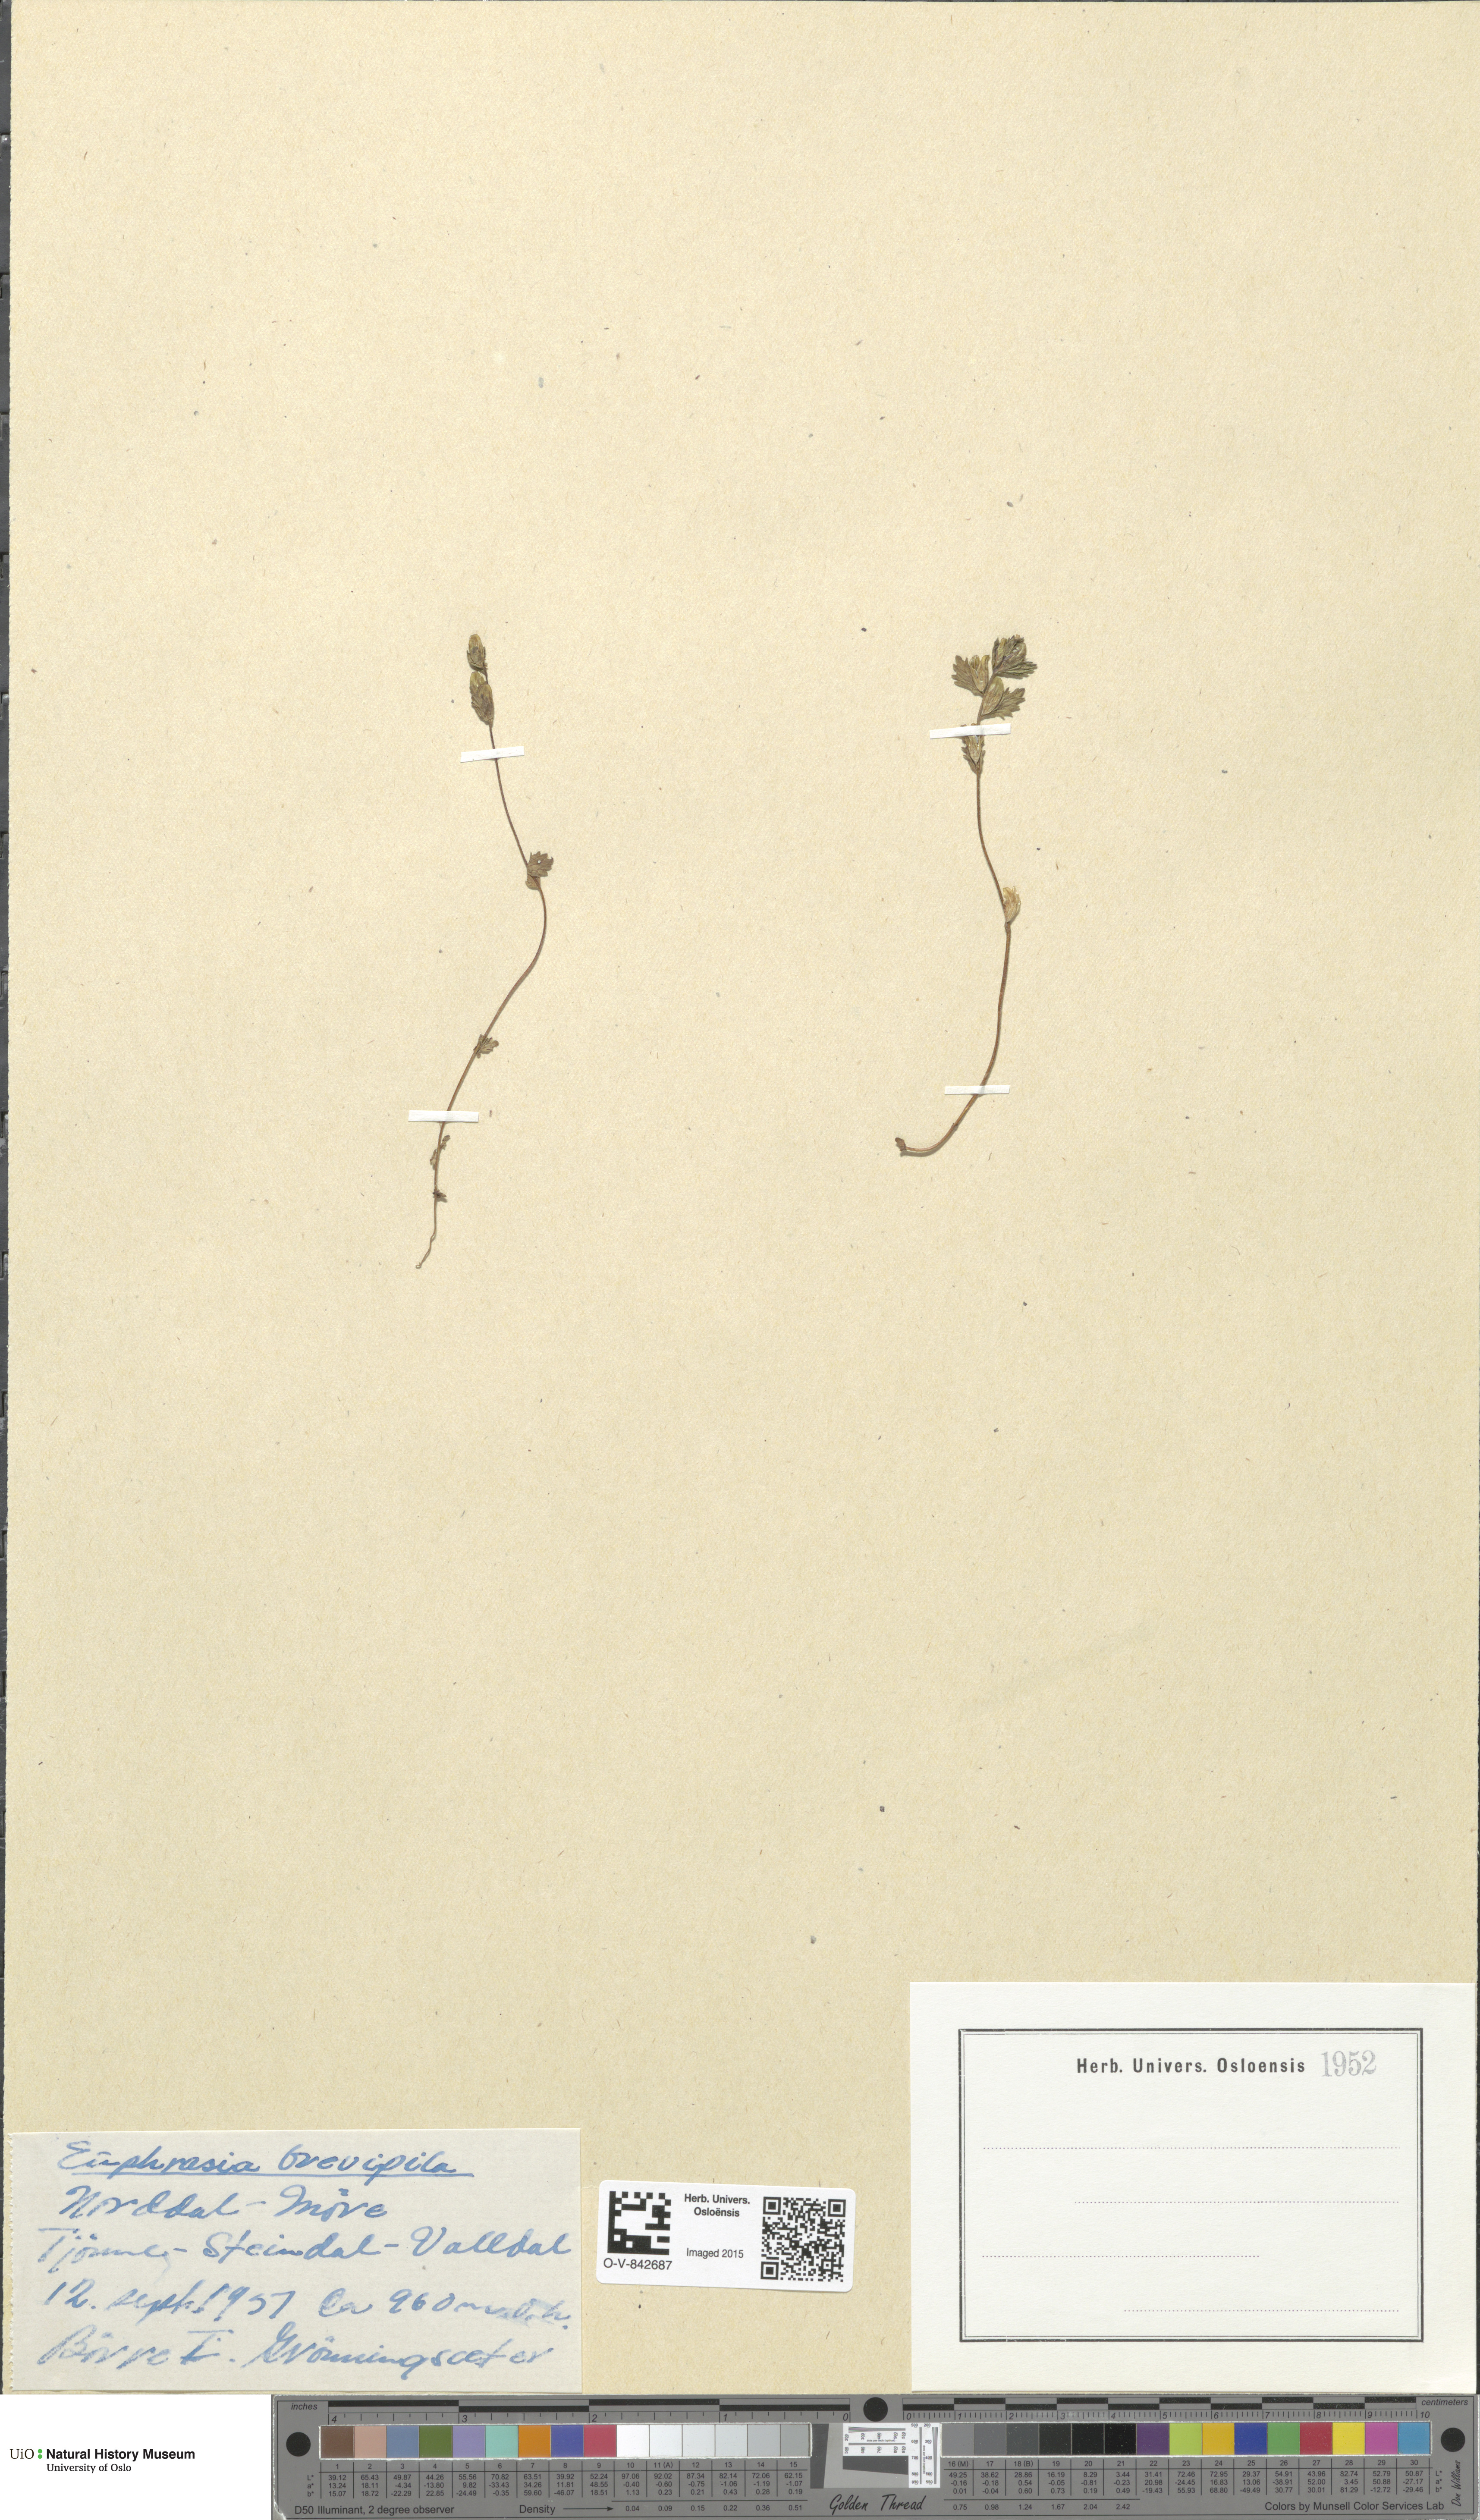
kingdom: Plantae
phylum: Tracheophyta
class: Magnoliopsida
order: Lamiales
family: Orobanchaceae
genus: Euphrasia
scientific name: Euphrasia vernalis
